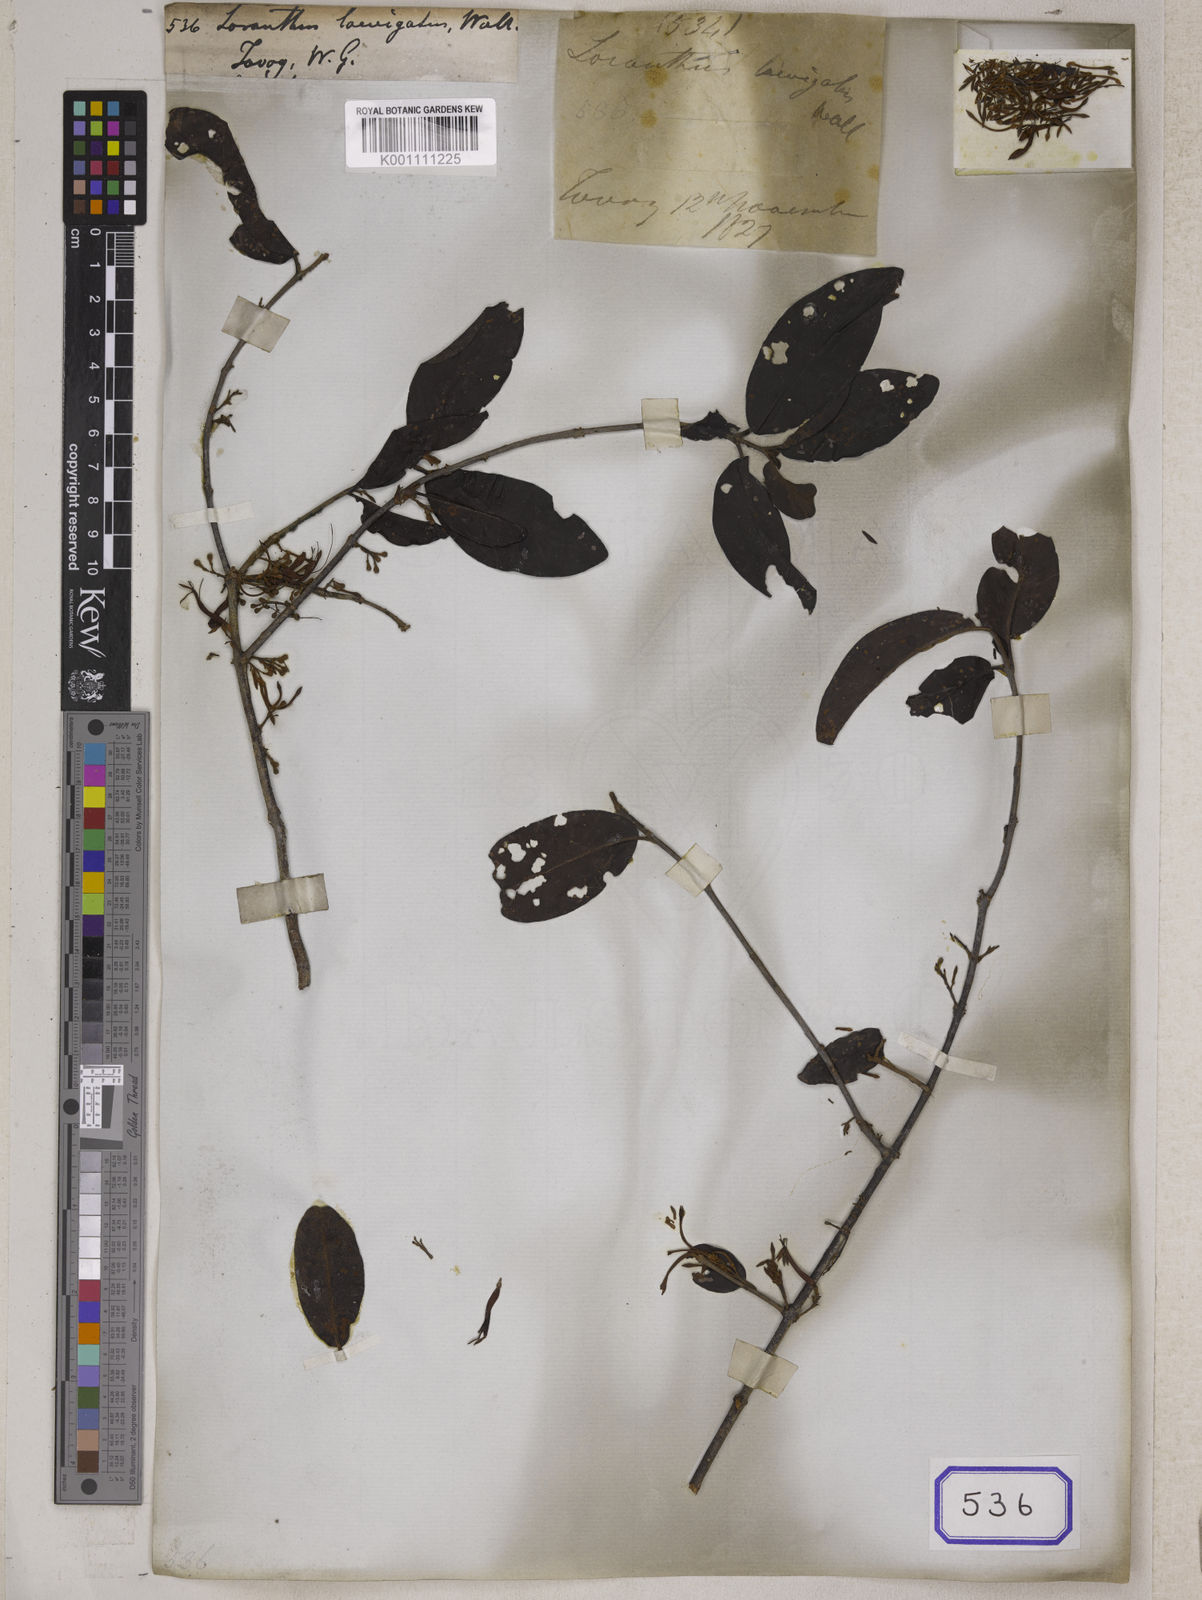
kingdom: Plantae
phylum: Tracheophyta
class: Magnoliopsida
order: Santalales
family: Loranthaceae
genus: Loranthus
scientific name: Loranthus
